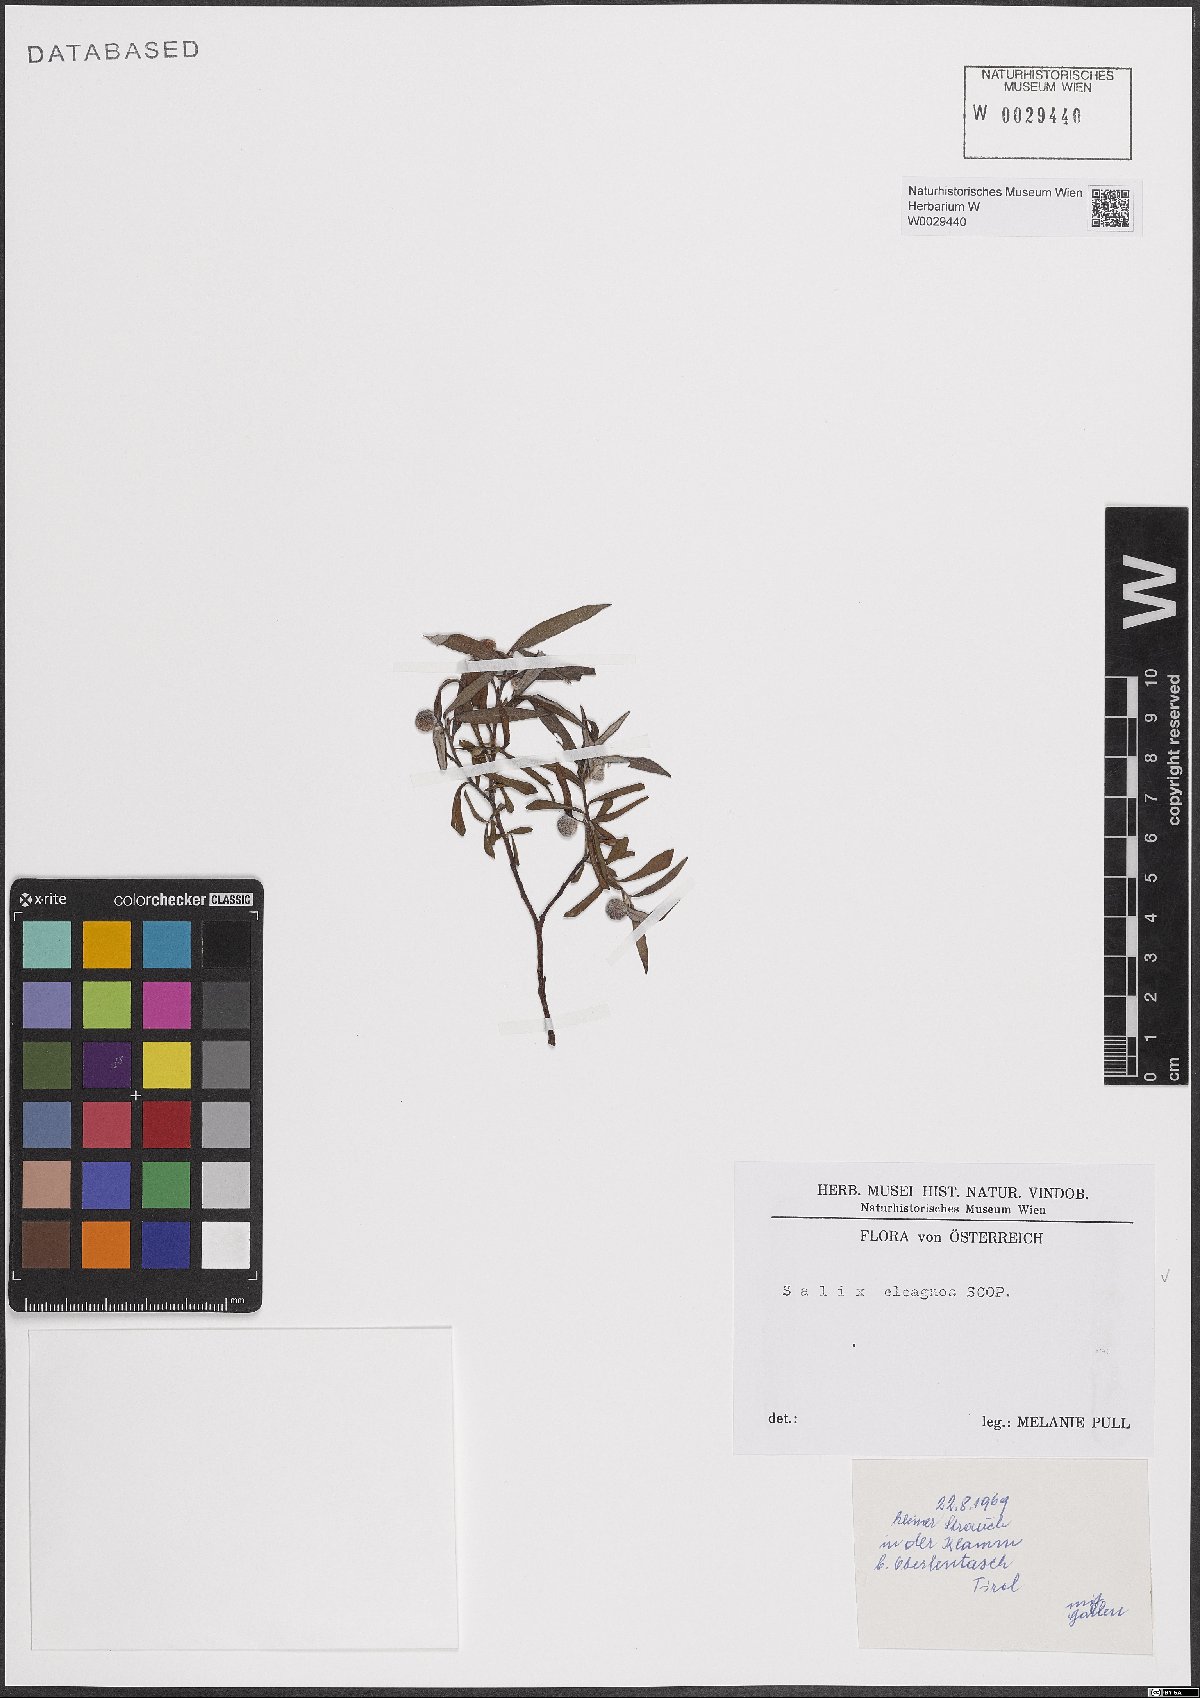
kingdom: Plantae
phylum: Tracheophyta
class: Magnoliopsida
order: Malpighiales
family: Salicaceae
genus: Salix
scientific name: Salix eleagnos
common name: Elaeagnus willow
